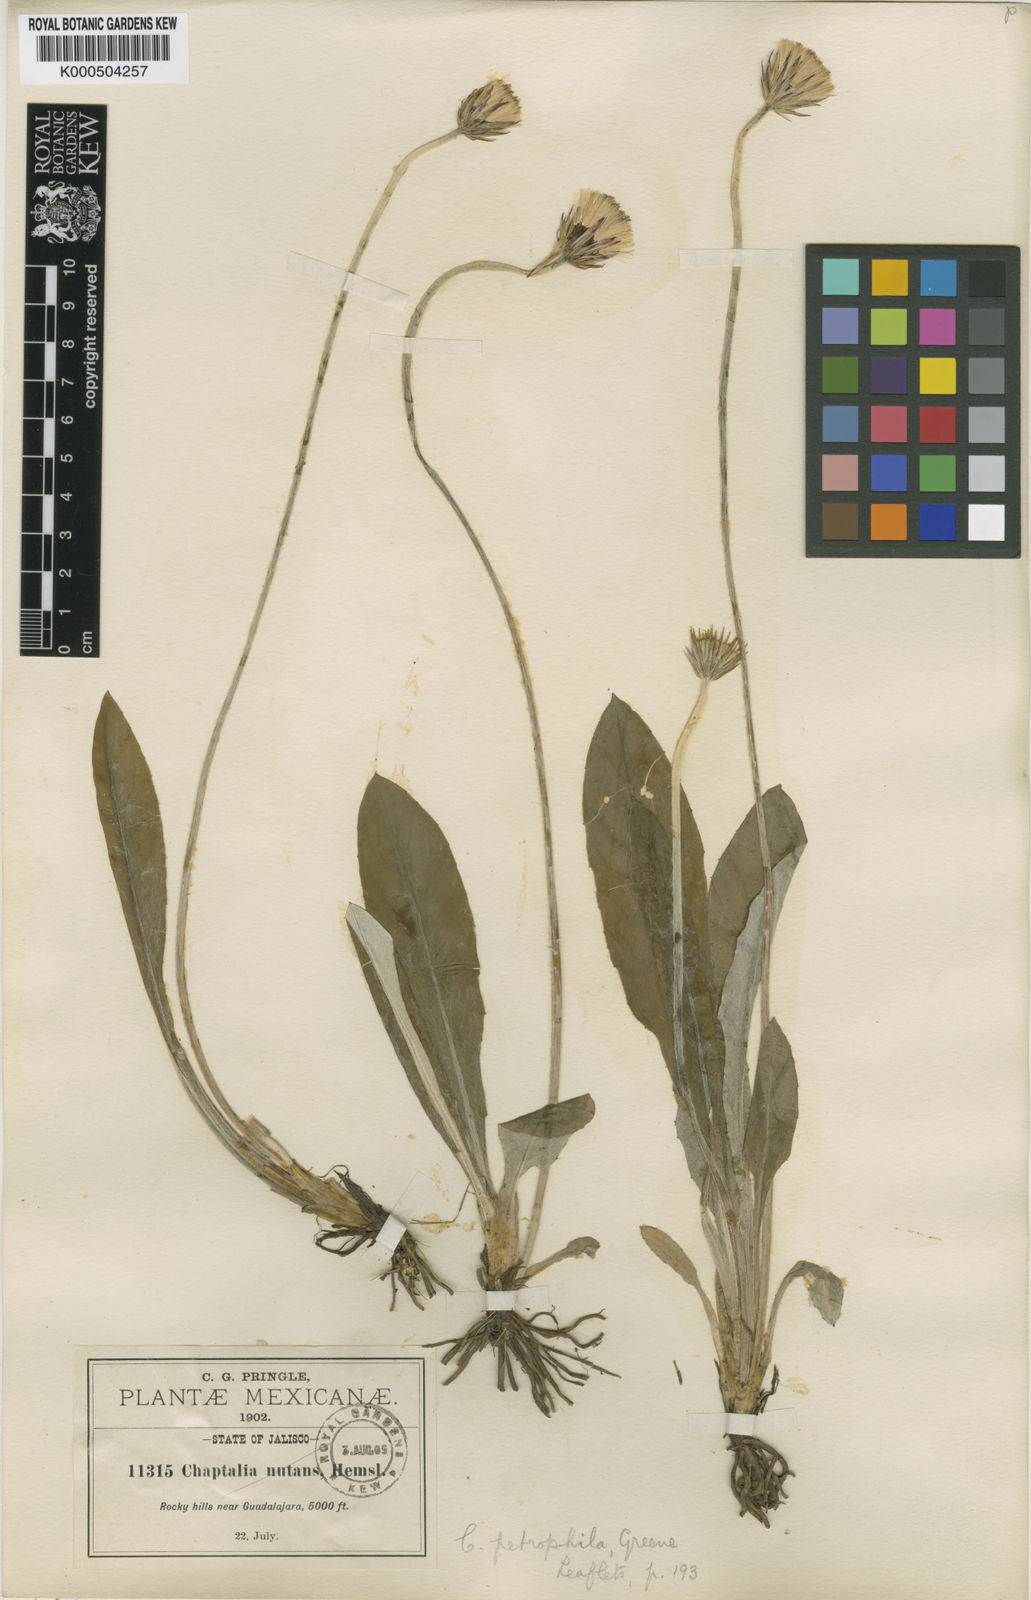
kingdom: Plantae
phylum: Tracheophyta
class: Magnoliopsida
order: Asterales
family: Asteraceae
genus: Chaptalia
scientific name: Chaptalia texana
